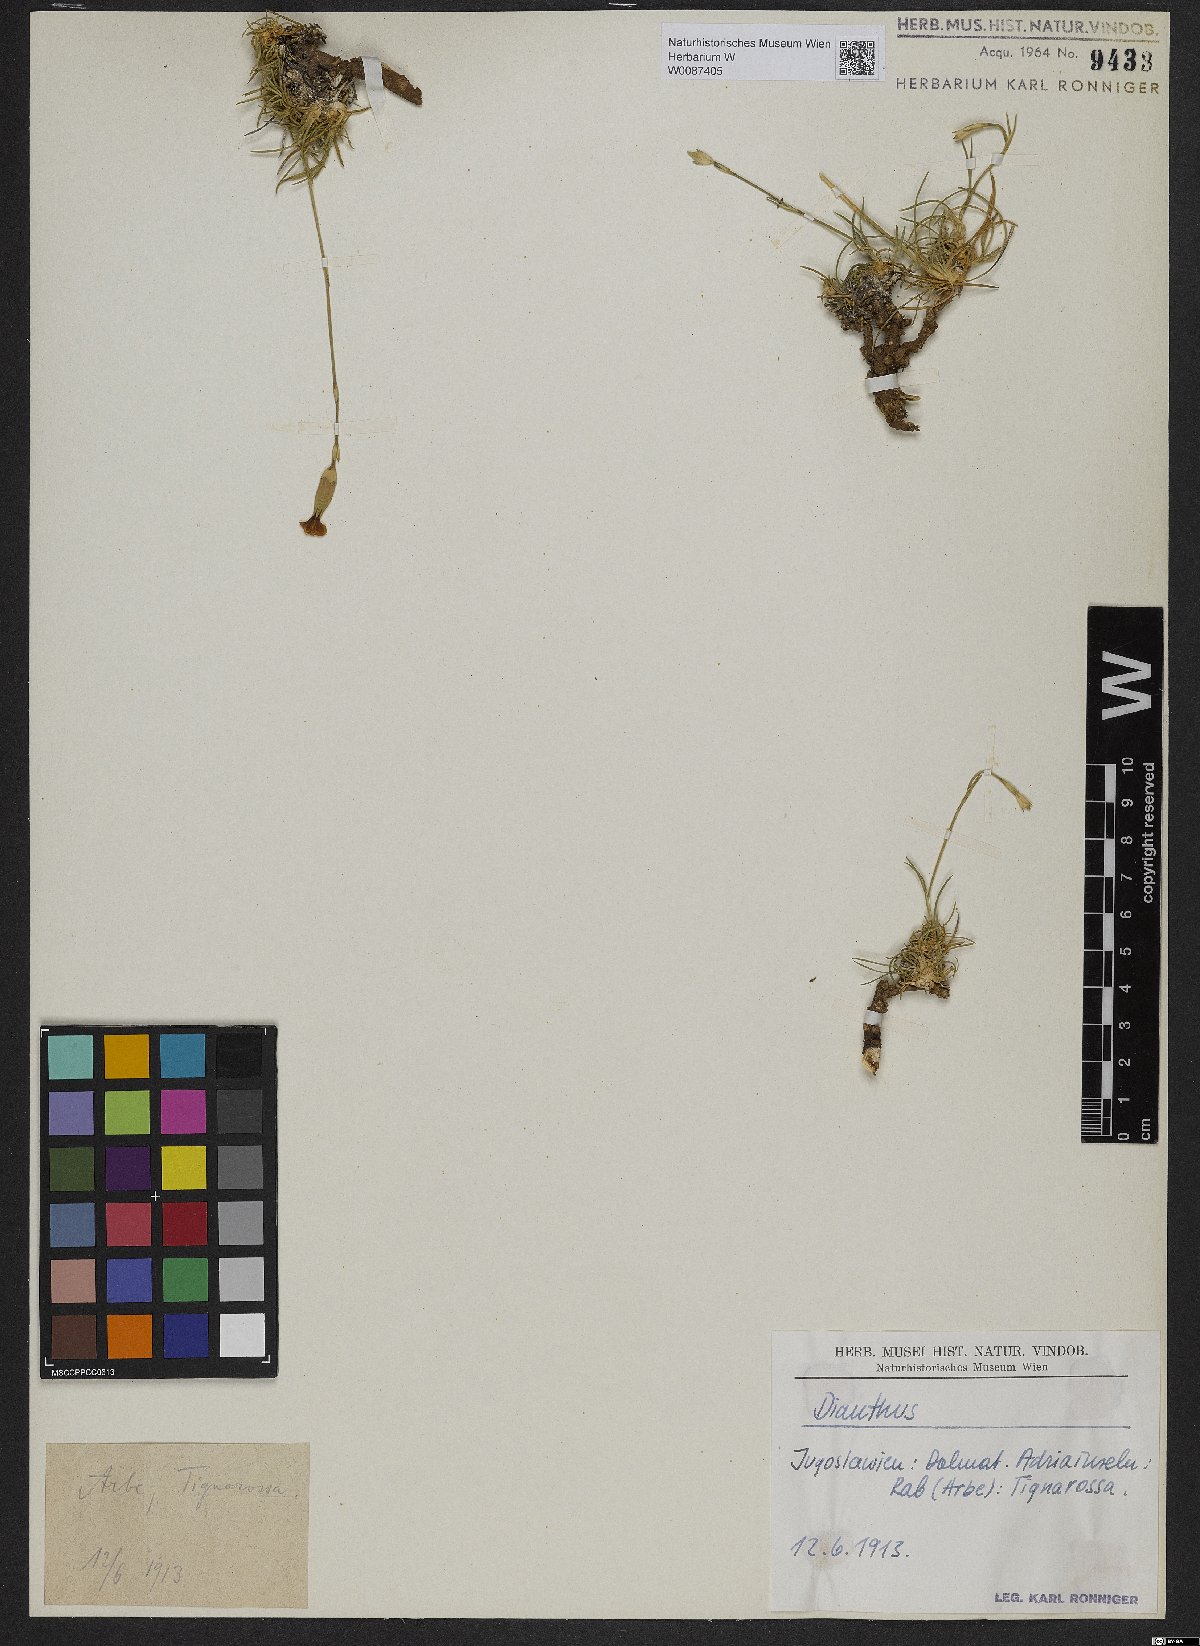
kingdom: Plantae
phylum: Tracheophyta
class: Magnoliopsida
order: Caryophyllales
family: Caryophyllaceae
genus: Dianthus
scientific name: Dianthus
